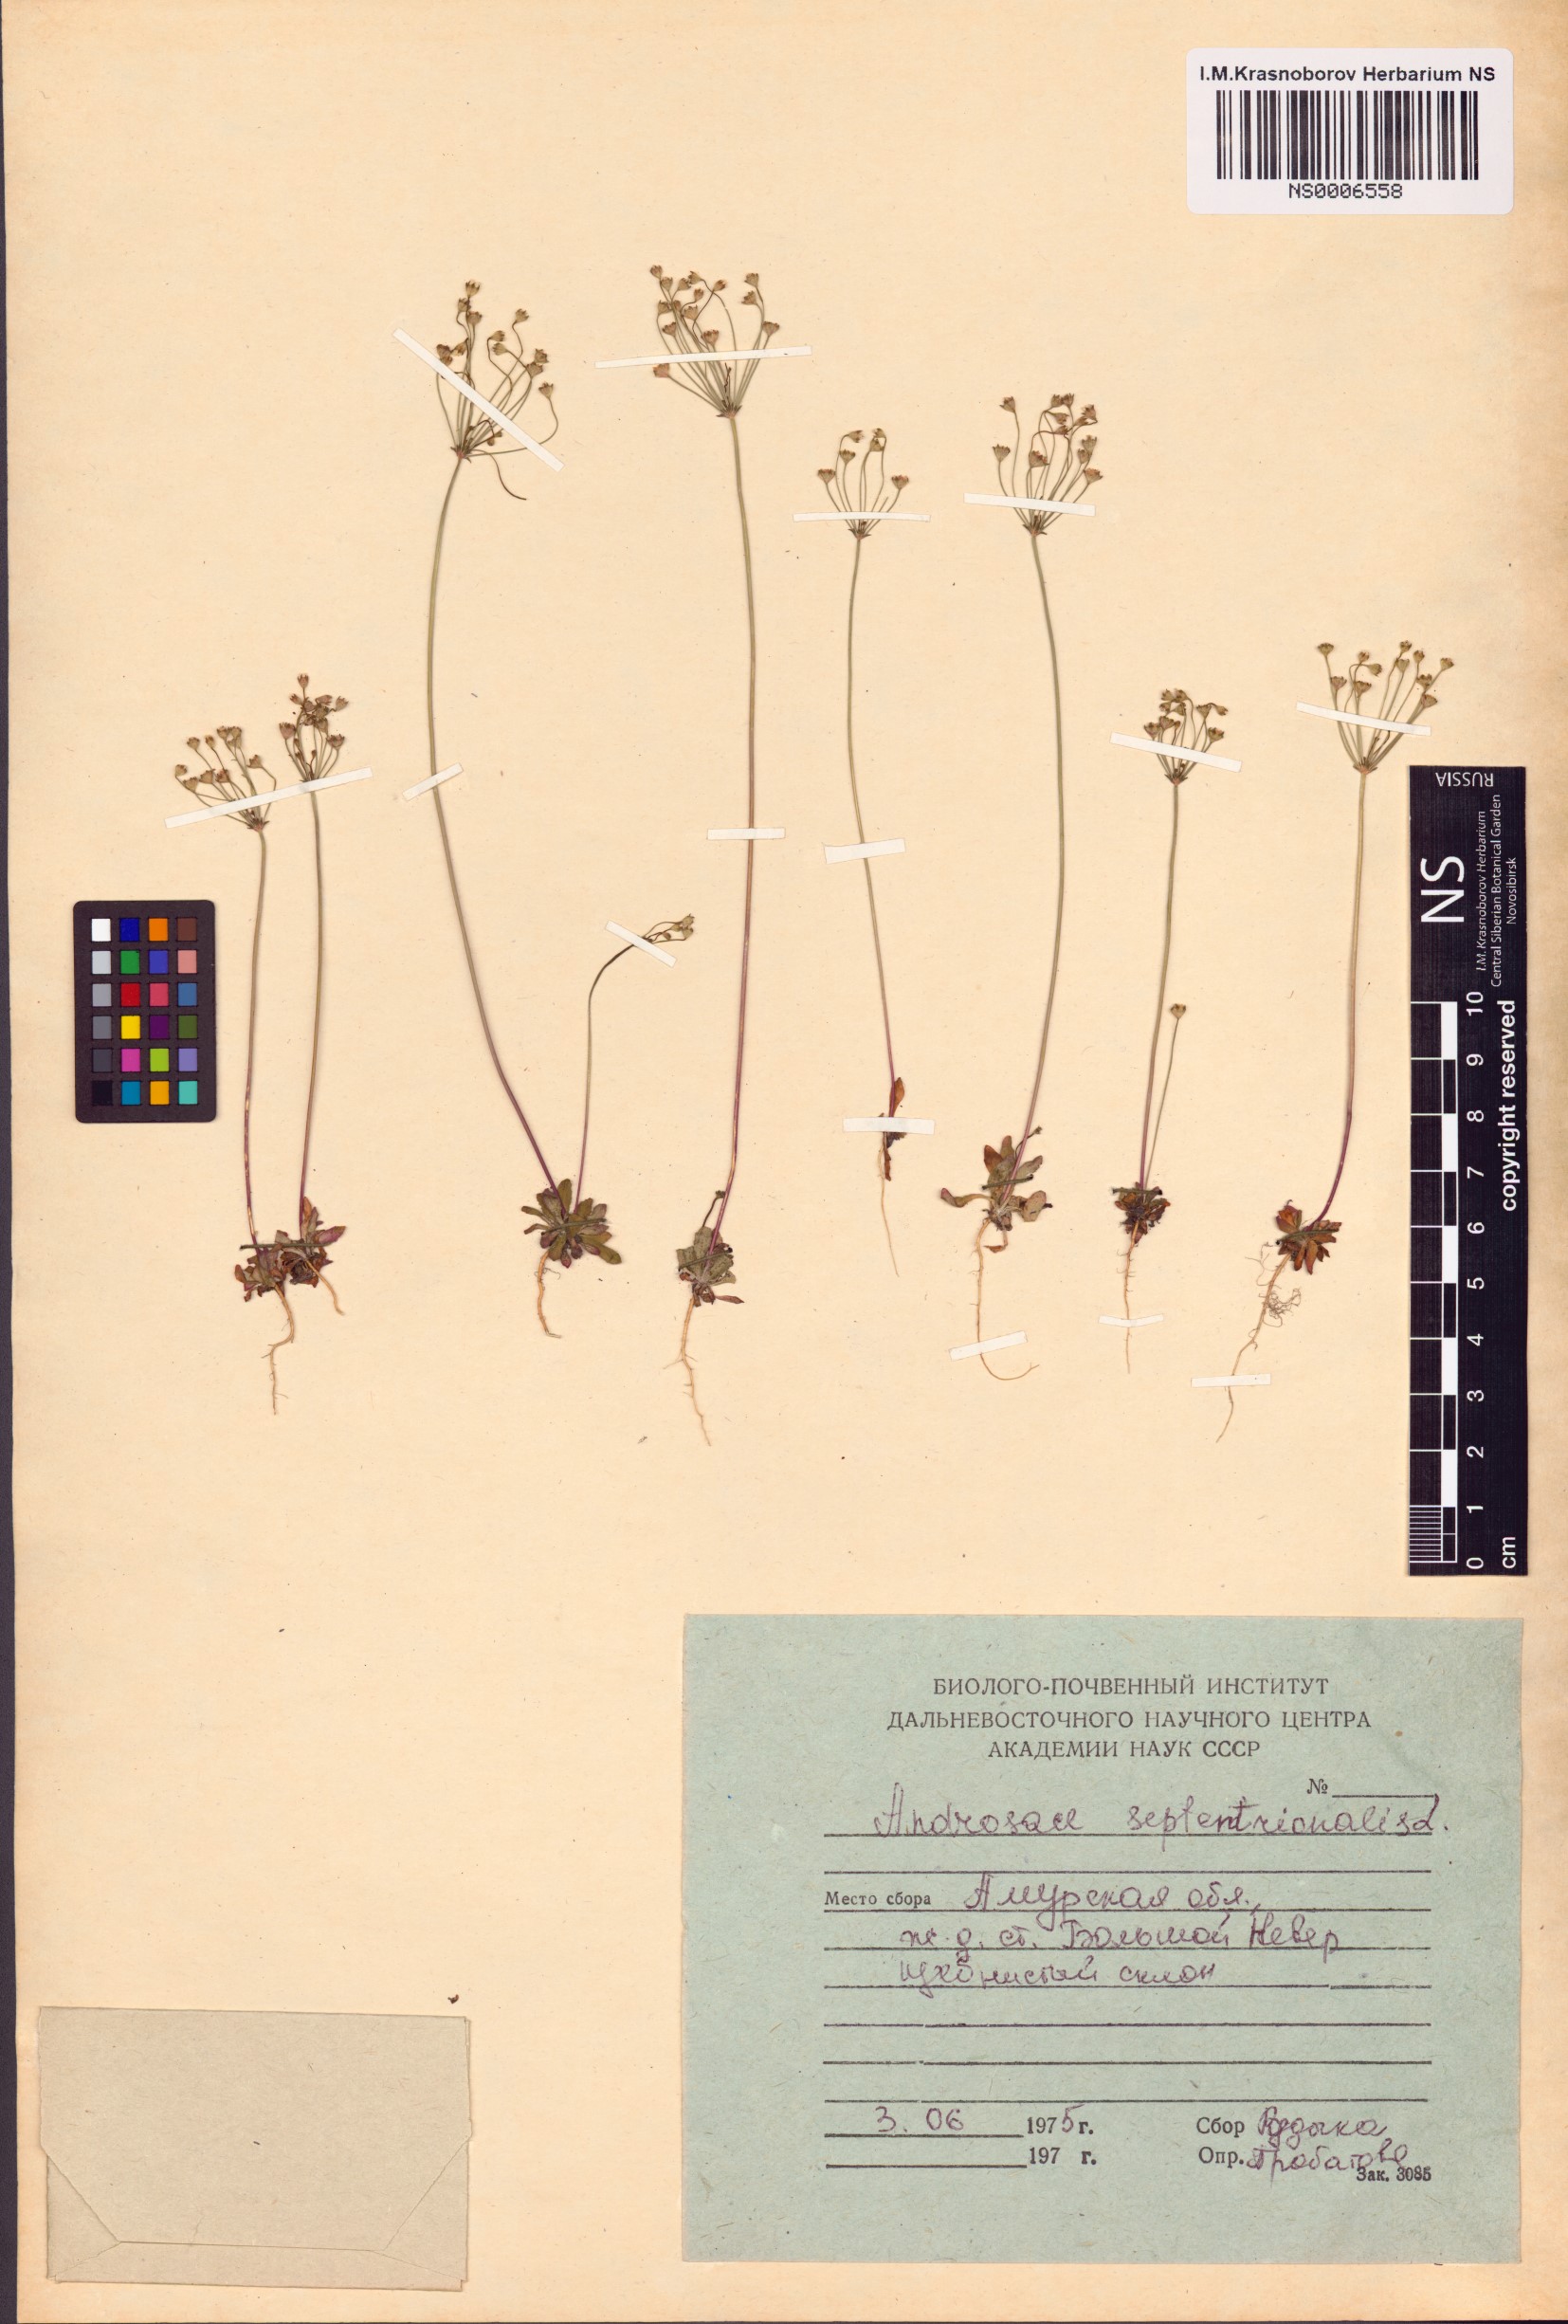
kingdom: Plantae
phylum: Tracheophyta
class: Magnoliopsida
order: Ericales
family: Primulaceae
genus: Androsace
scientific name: Androsace septentrionalis
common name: Hairy northern fairy-candelabra
